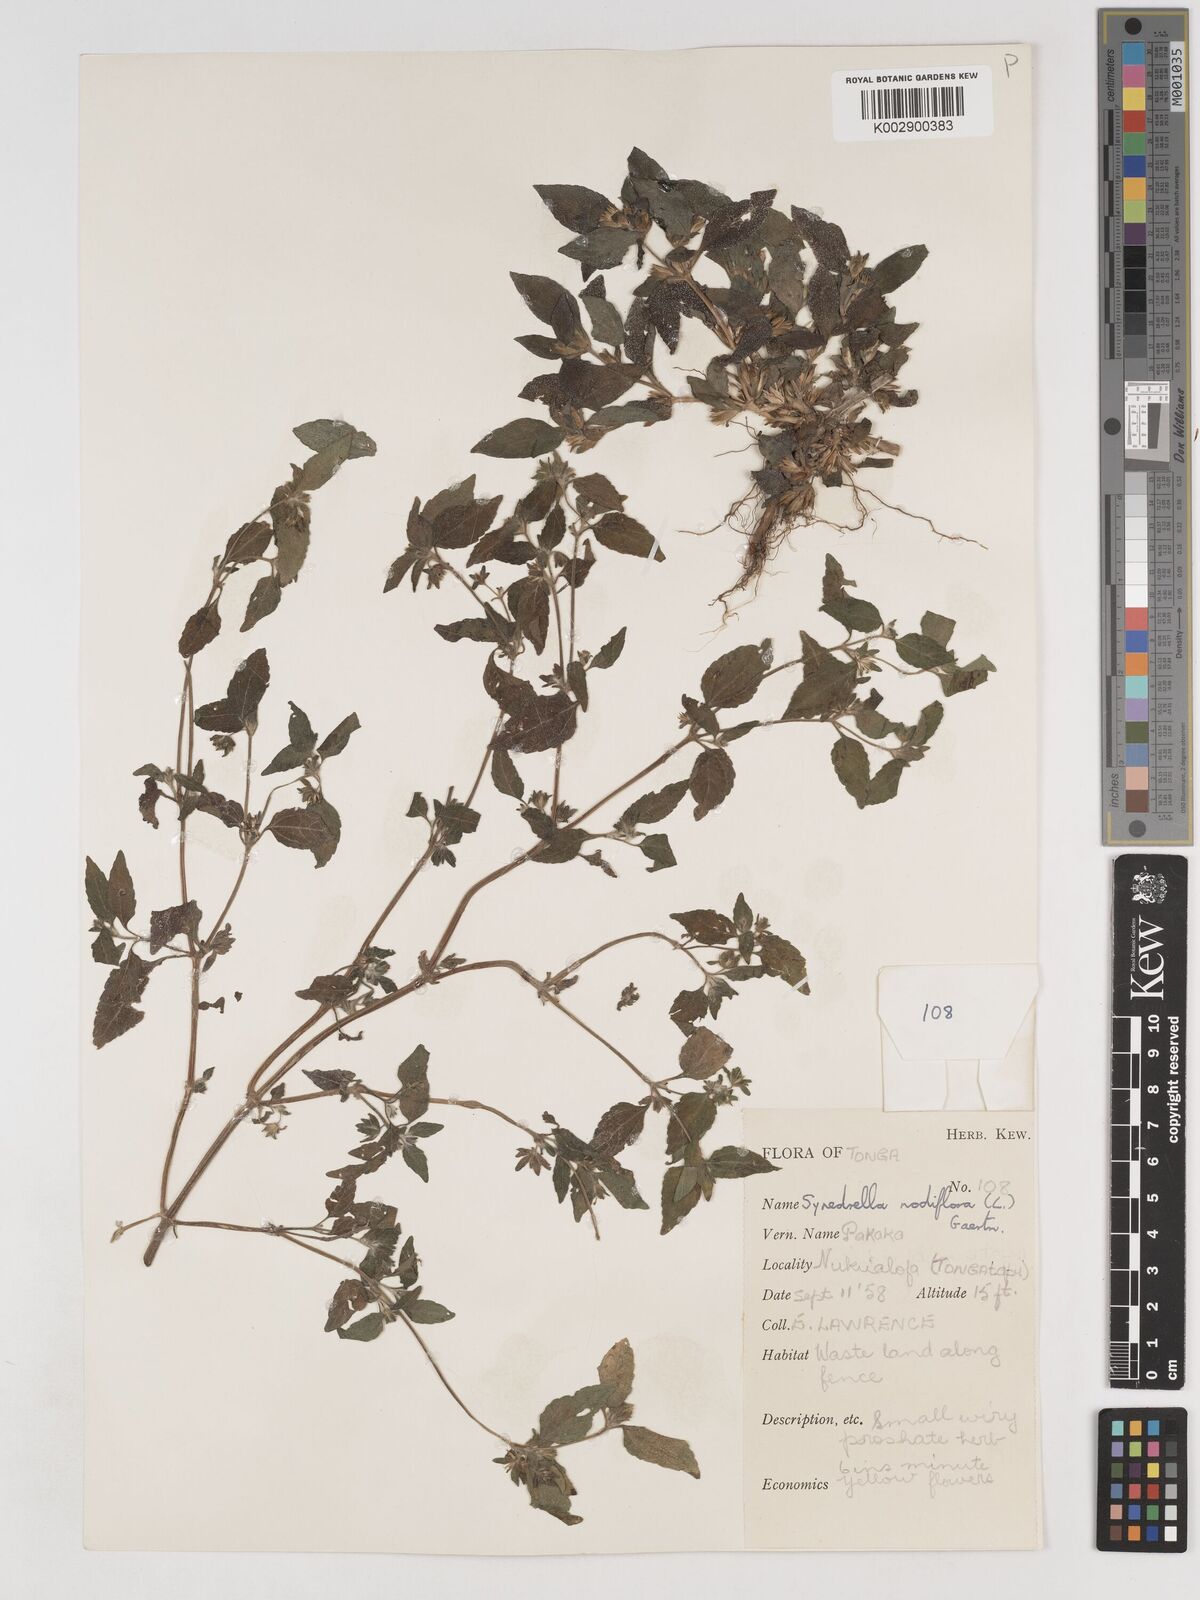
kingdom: Plantae
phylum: Tracheophyta
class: Magnoliopsida
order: Asterales
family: Asteraceae
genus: Synedrella
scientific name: Synedrella nodiflora
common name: Nodeweed
